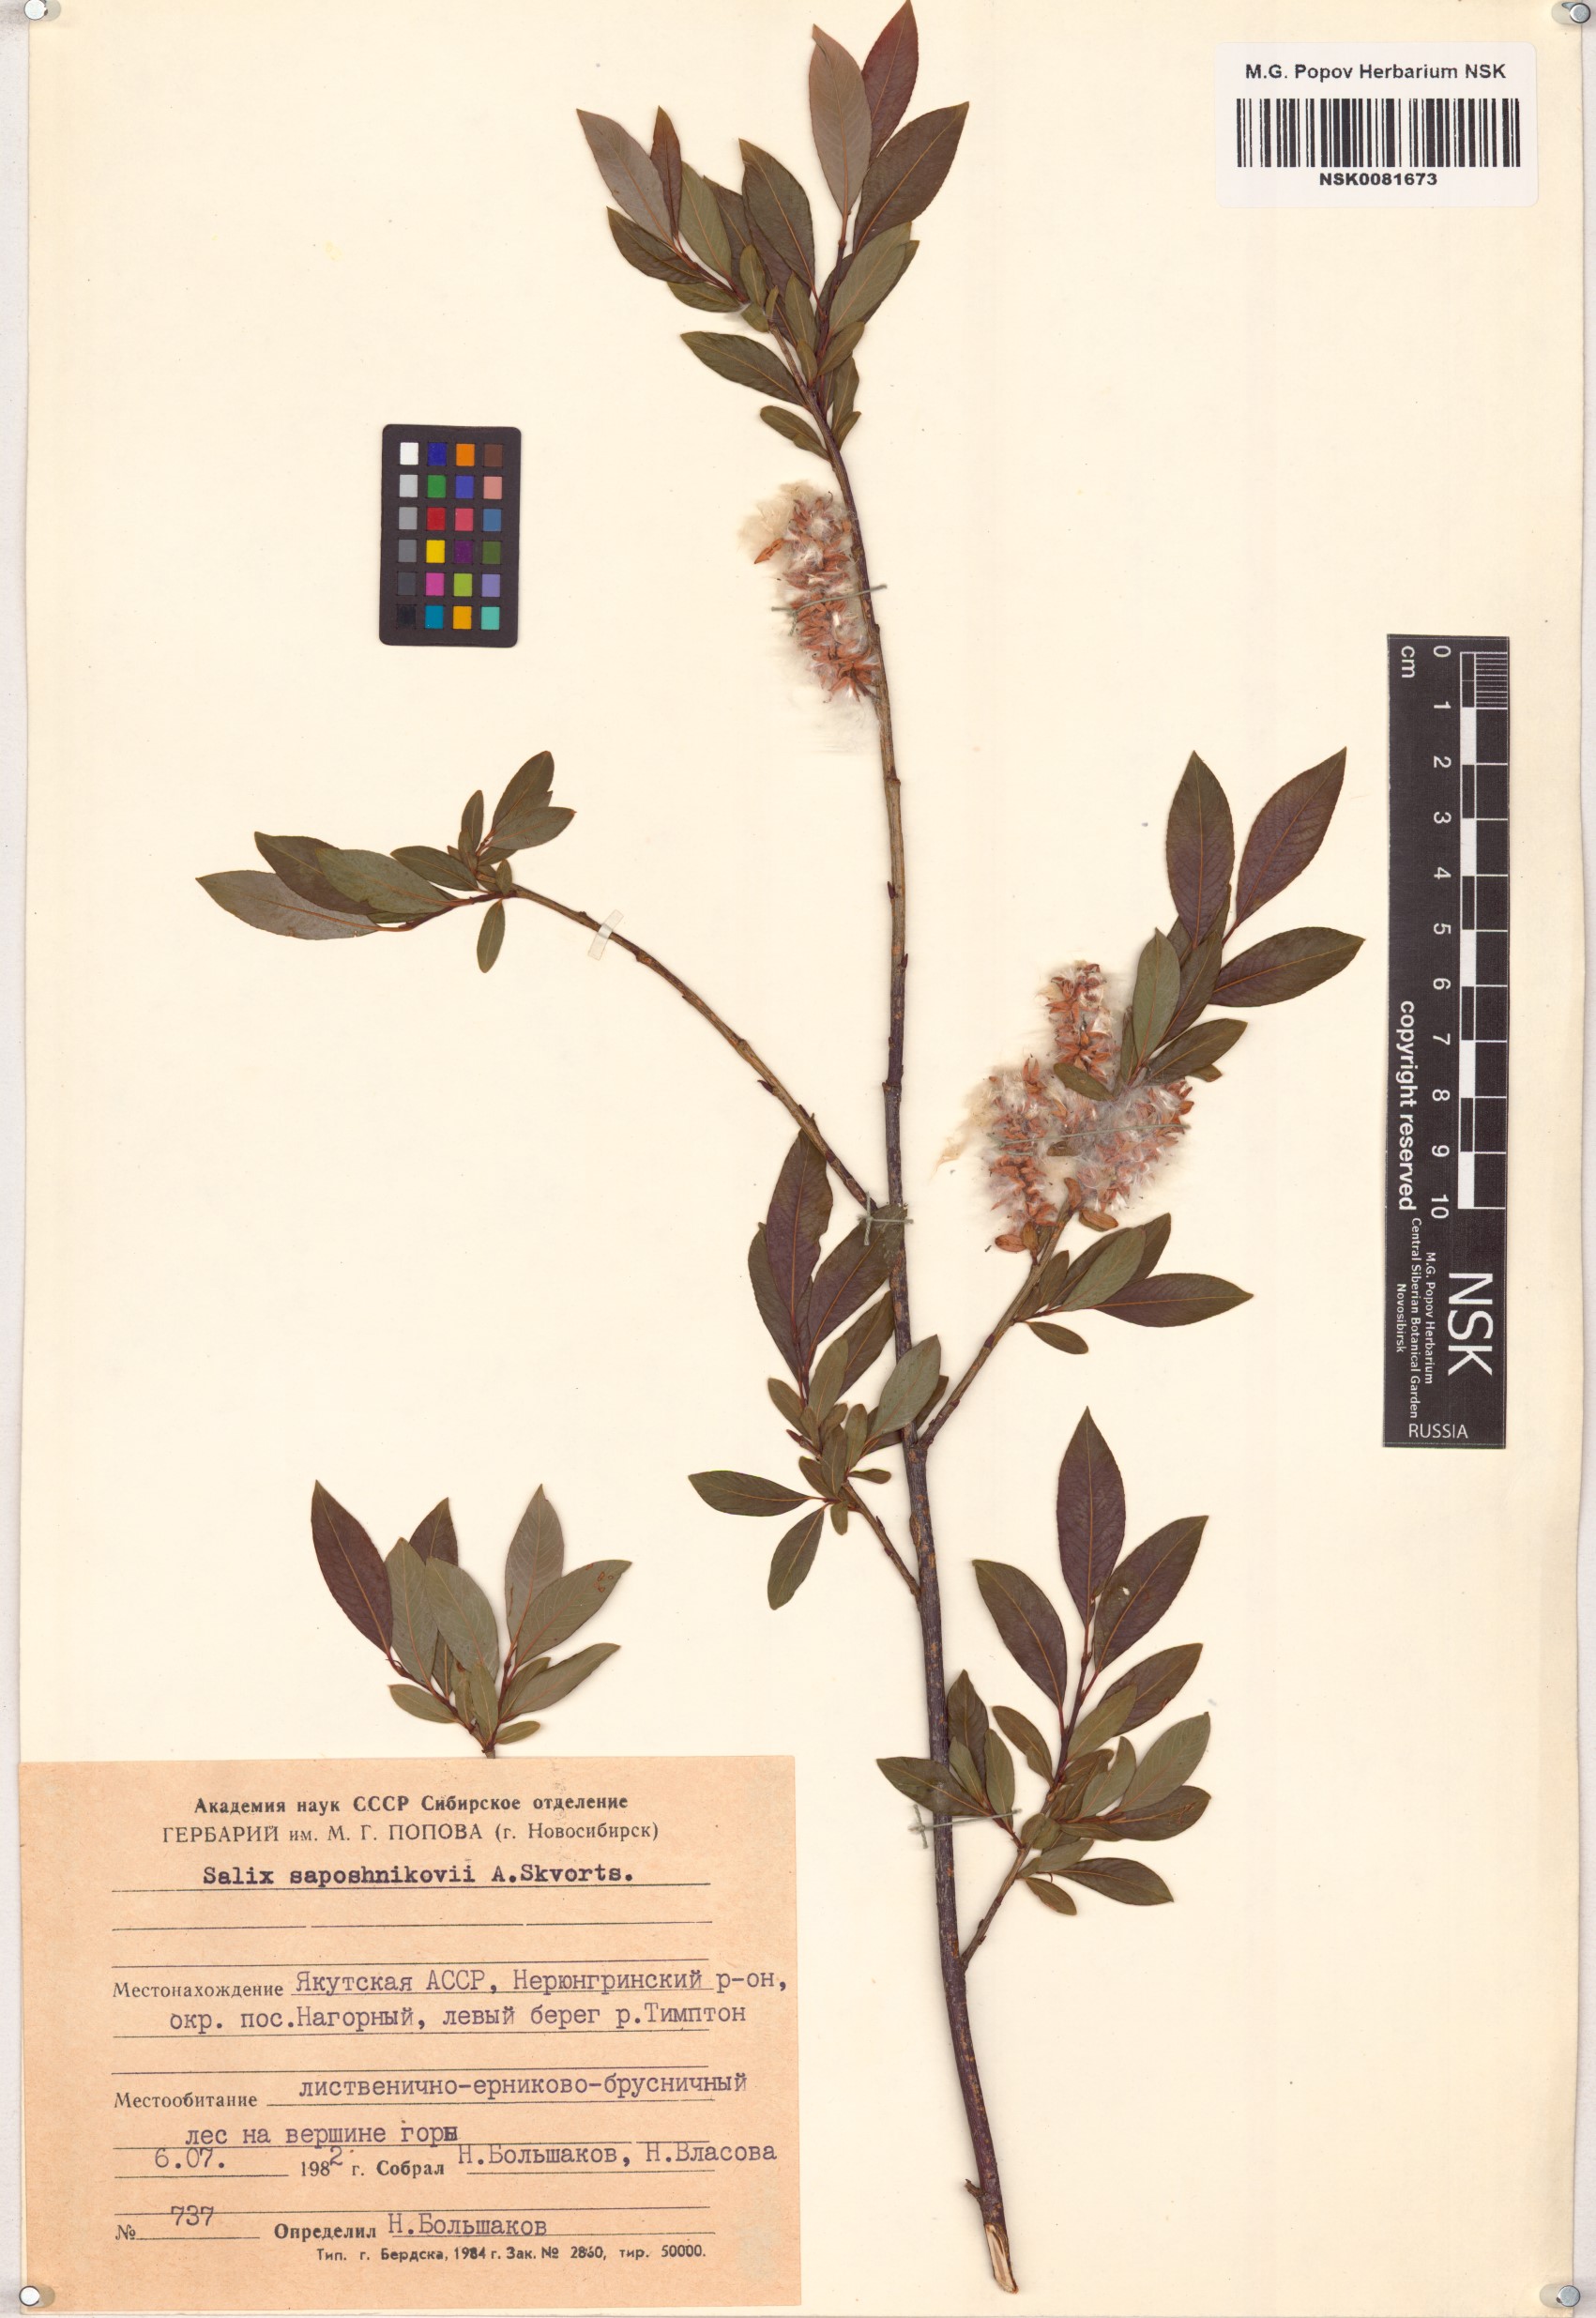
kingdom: Plantae
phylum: Tracheophyta
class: Magnoliopsida
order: Malpighiales
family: Salicaceae
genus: Salix
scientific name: Salix saposhnikovii
